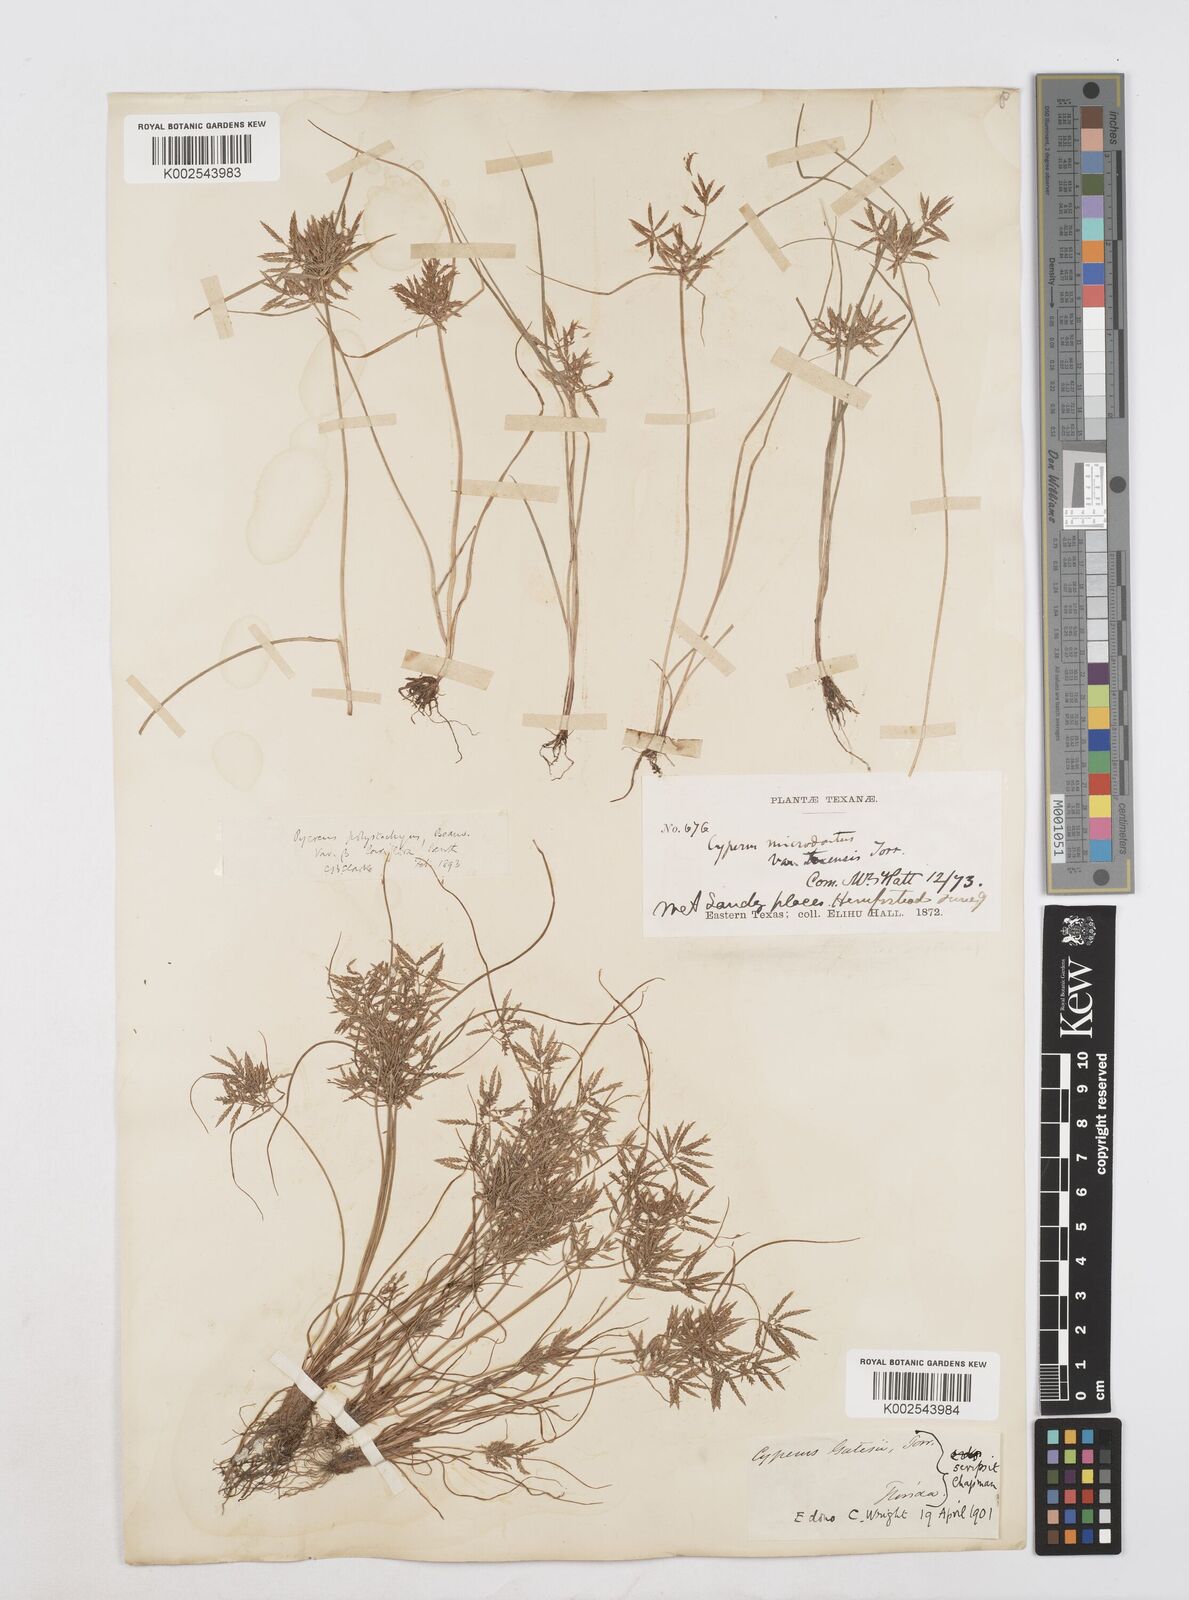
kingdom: Plantae
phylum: Tracheophyta
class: Liliopsida
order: Poales
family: Cyperaceae
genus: Cyperus
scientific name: Cyperus polystachyos
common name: Bunchy flat sedge
